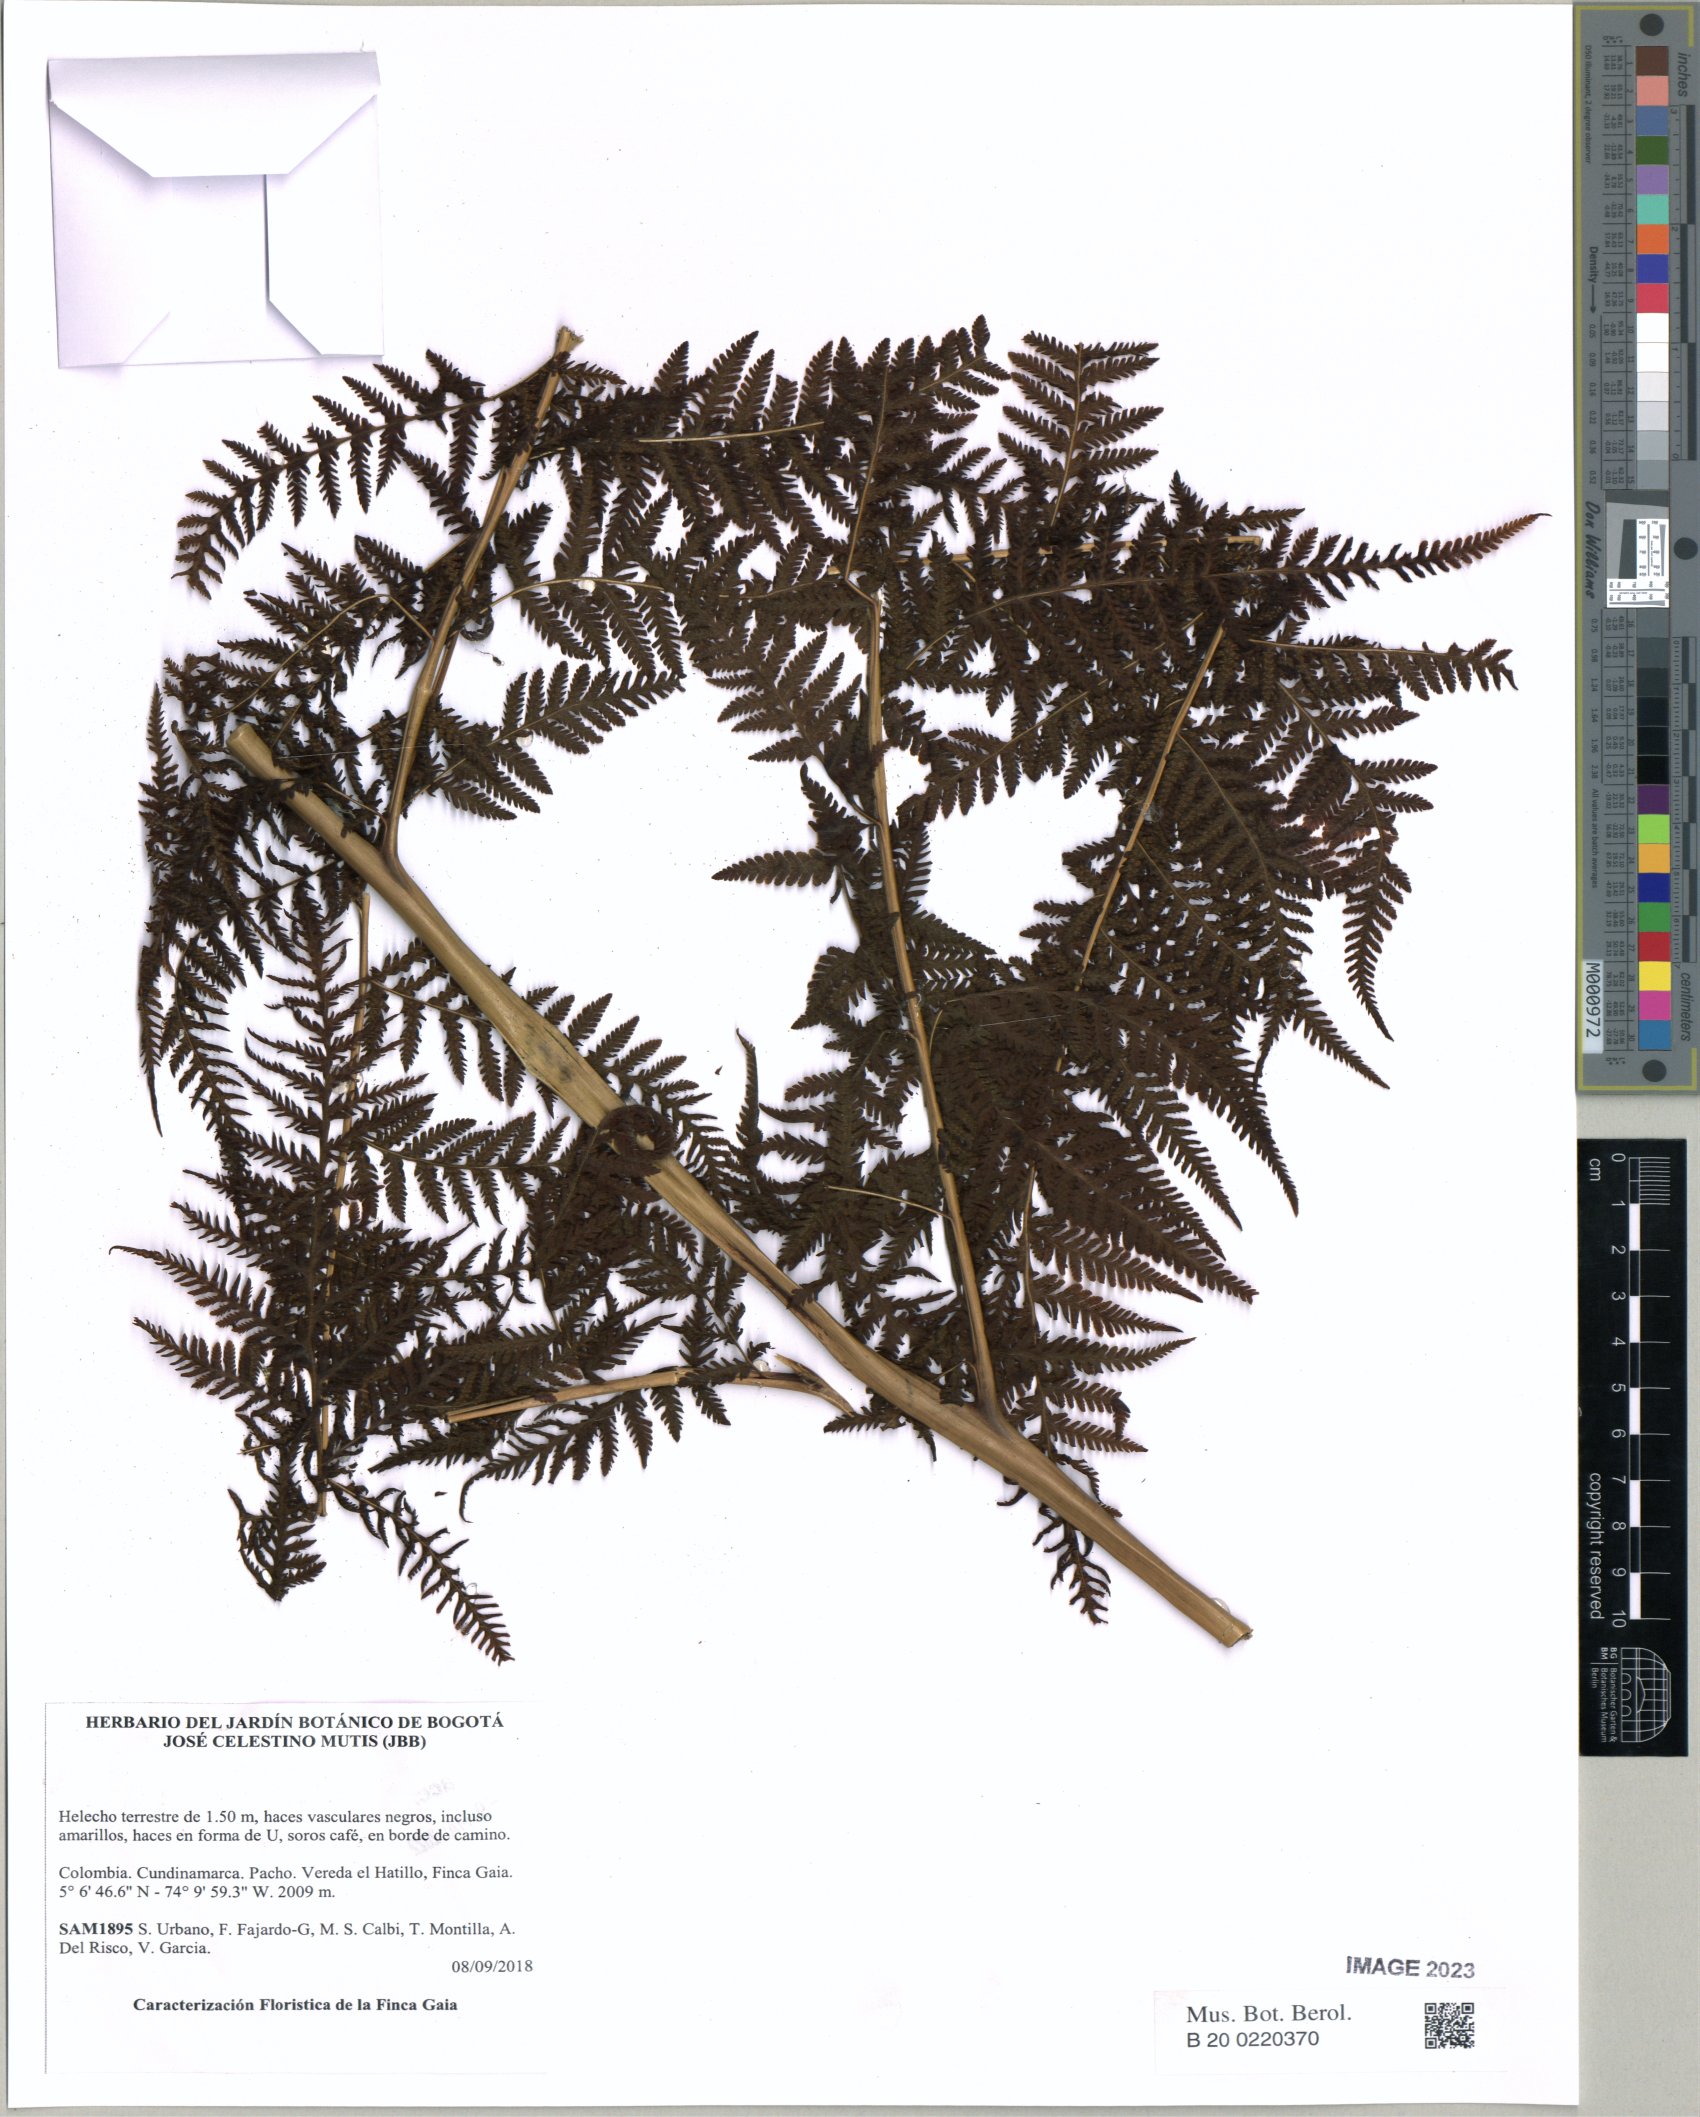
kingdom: Plantae
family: Pteridophyta
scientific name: Pteridophyta
